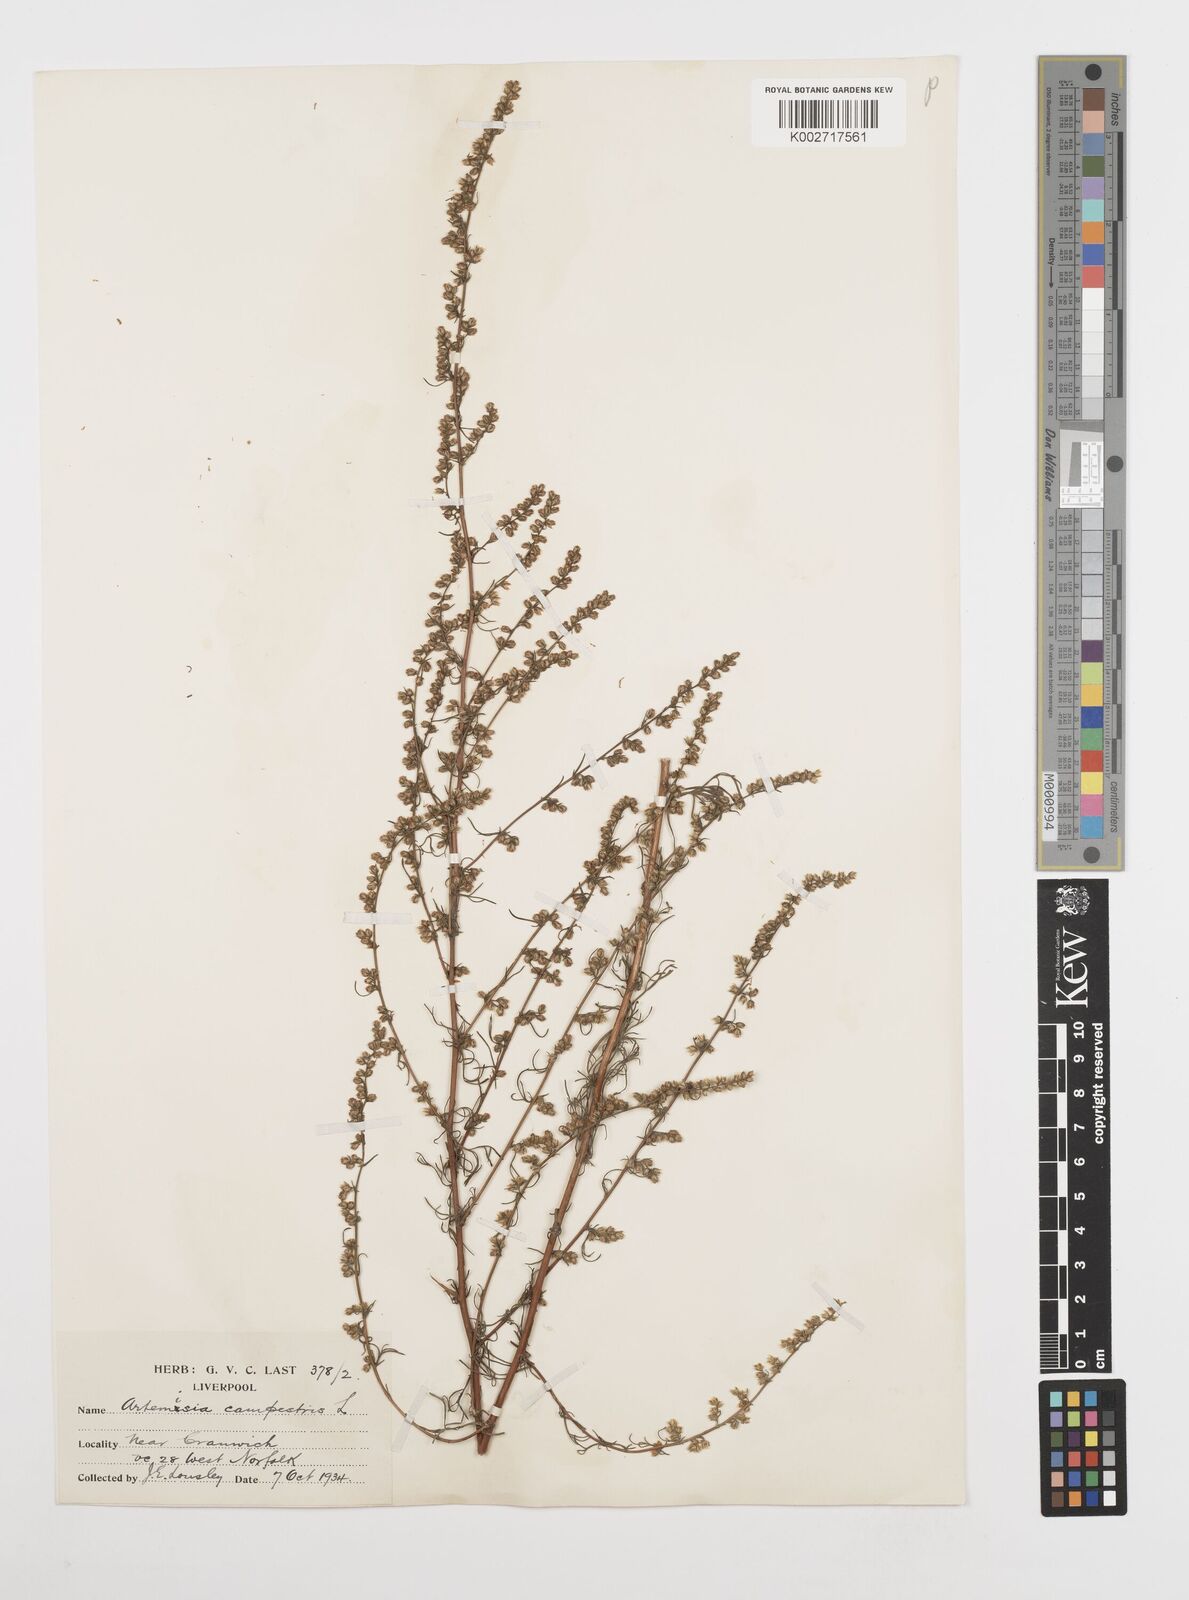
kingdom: Plantae
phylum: Tracheophyta
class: Magnoliopsida
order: Asterales
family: Asteraceae
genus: Artemisia
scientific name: Artemisia campestris
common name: Field wormwood
